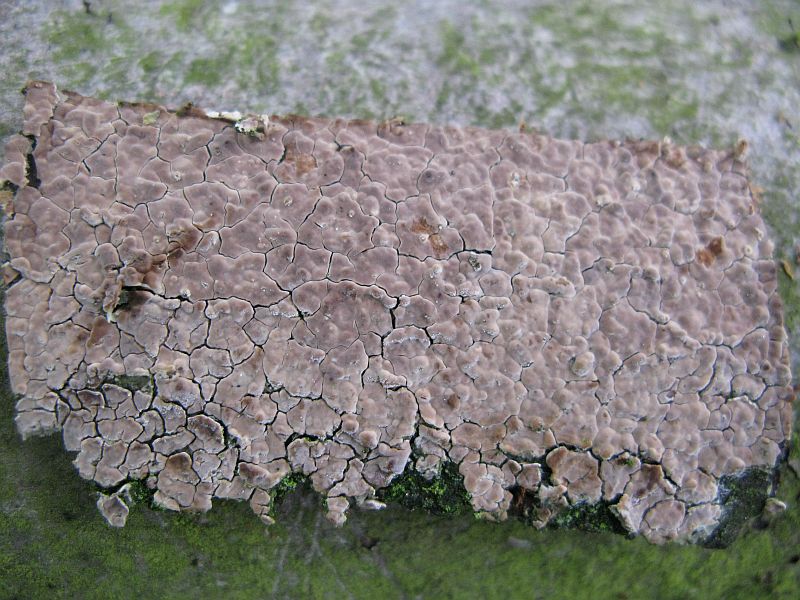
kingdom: Fungi
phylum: Basidiomycota
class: Agaricomycetes
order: Agaricales
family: Physalacriaceae
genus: Cylindrobasidium
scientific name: Cylindrobasidium evolvens
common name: sprækkehinde
